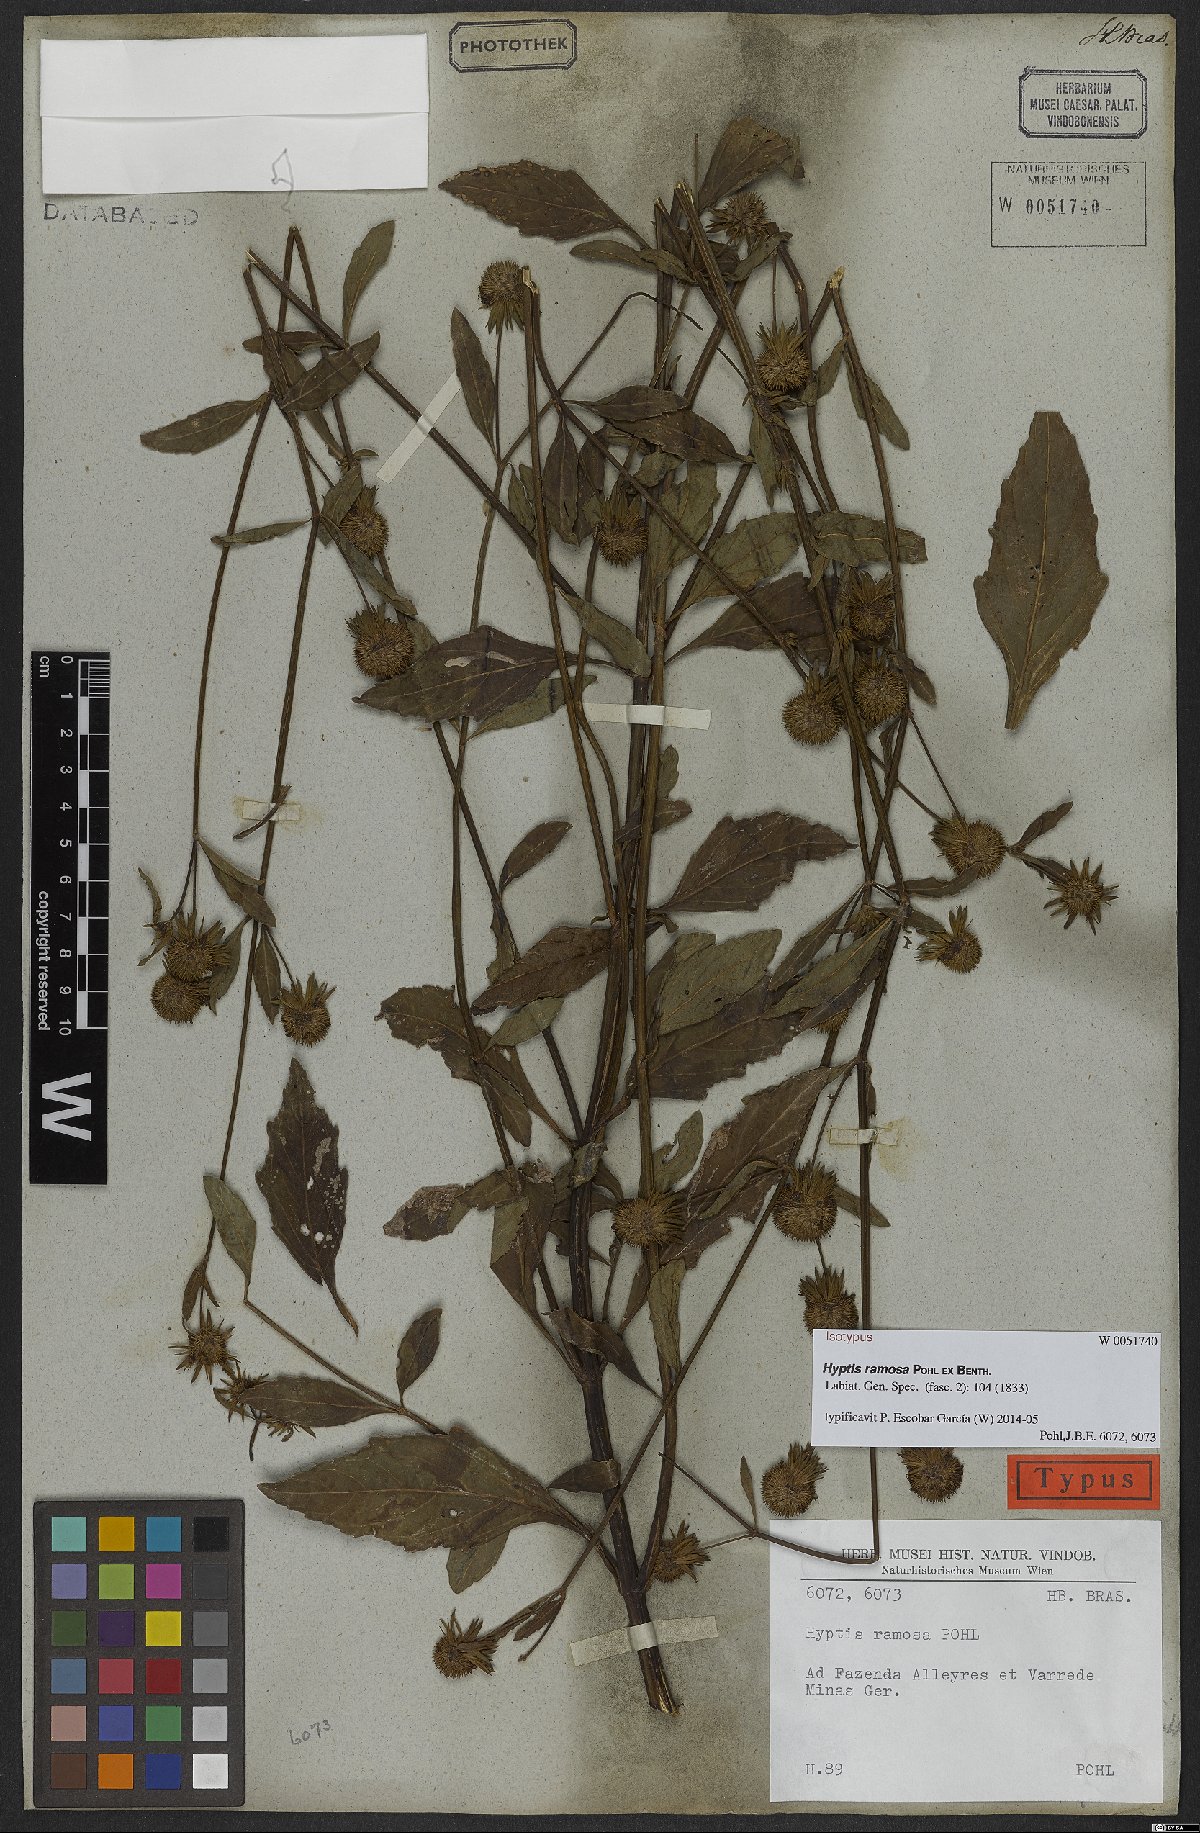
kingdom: Plantae
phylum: Tracheophyta
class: Magnoliopsida
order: Lamiales
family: Lamiaceae
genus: Hyptis
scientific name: Hyptis ramosa
